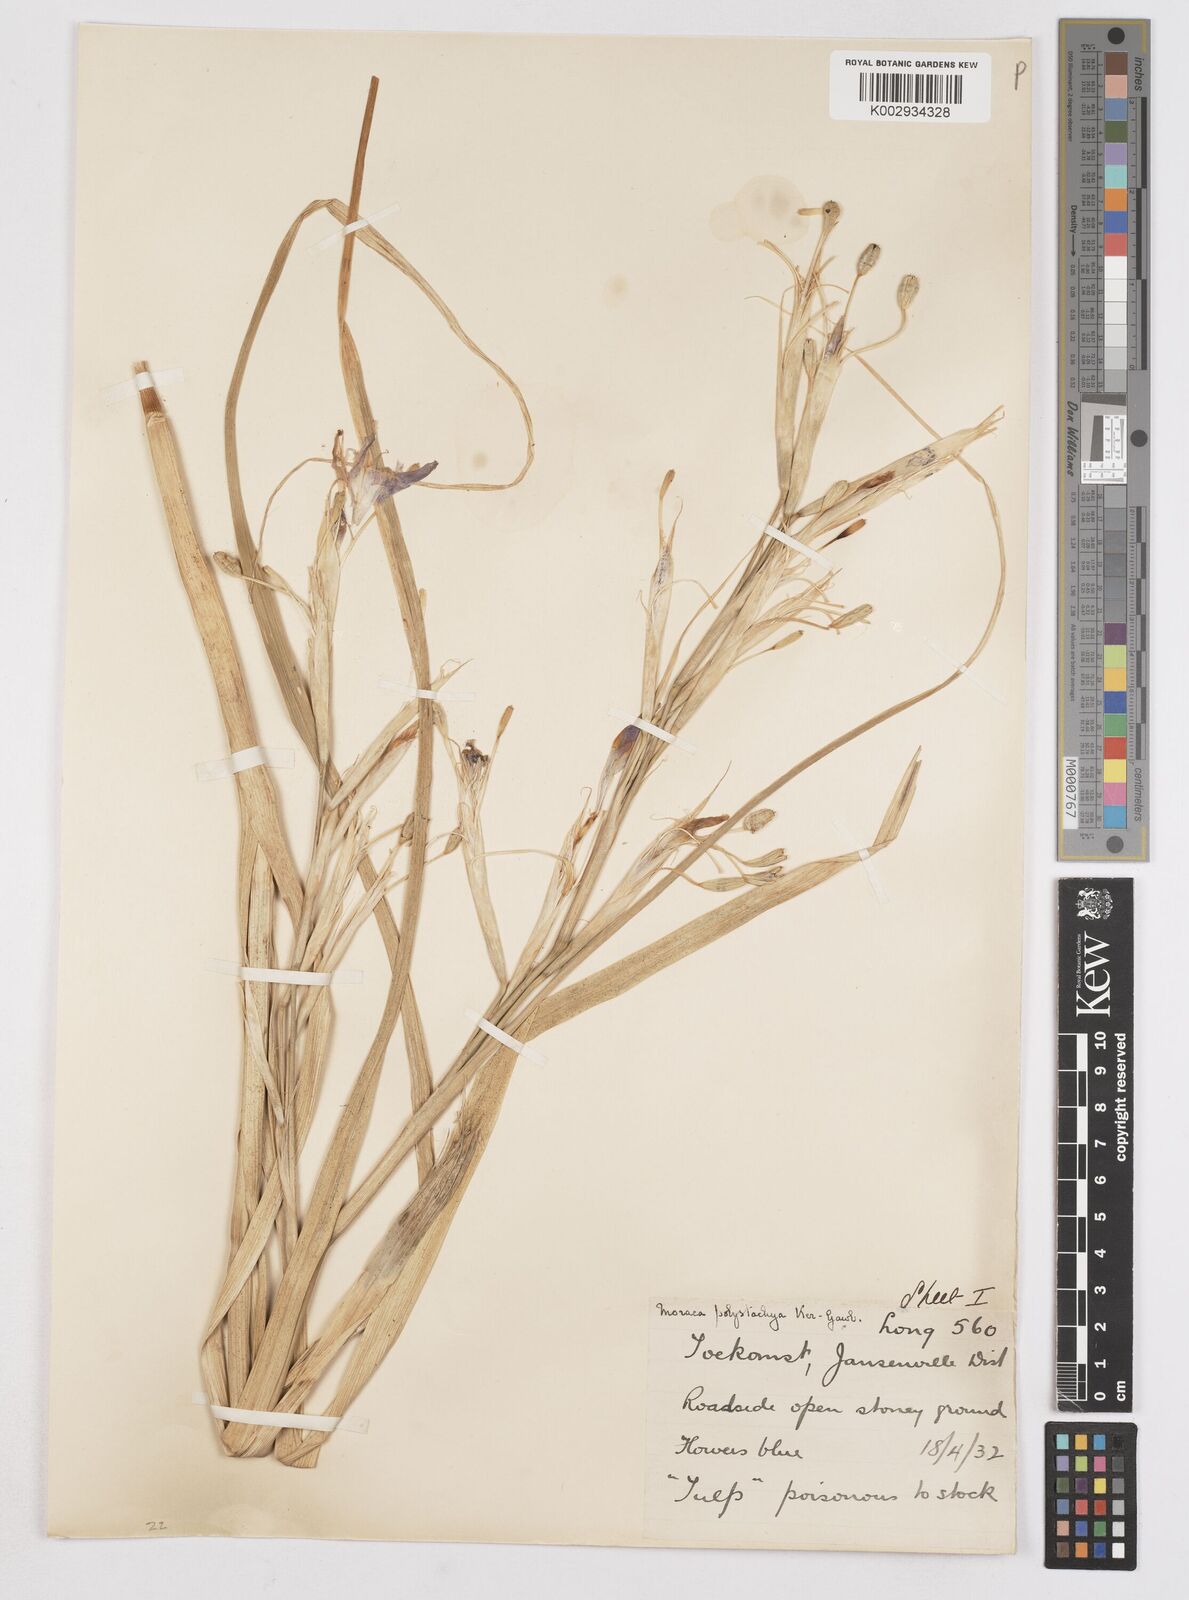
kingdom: Plantae
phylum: Tracheophyta
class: Liliopsida
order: Asparagales
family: Iridaceae
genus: Moraea
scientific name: Moraea polystachya
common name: Blue-tulip
